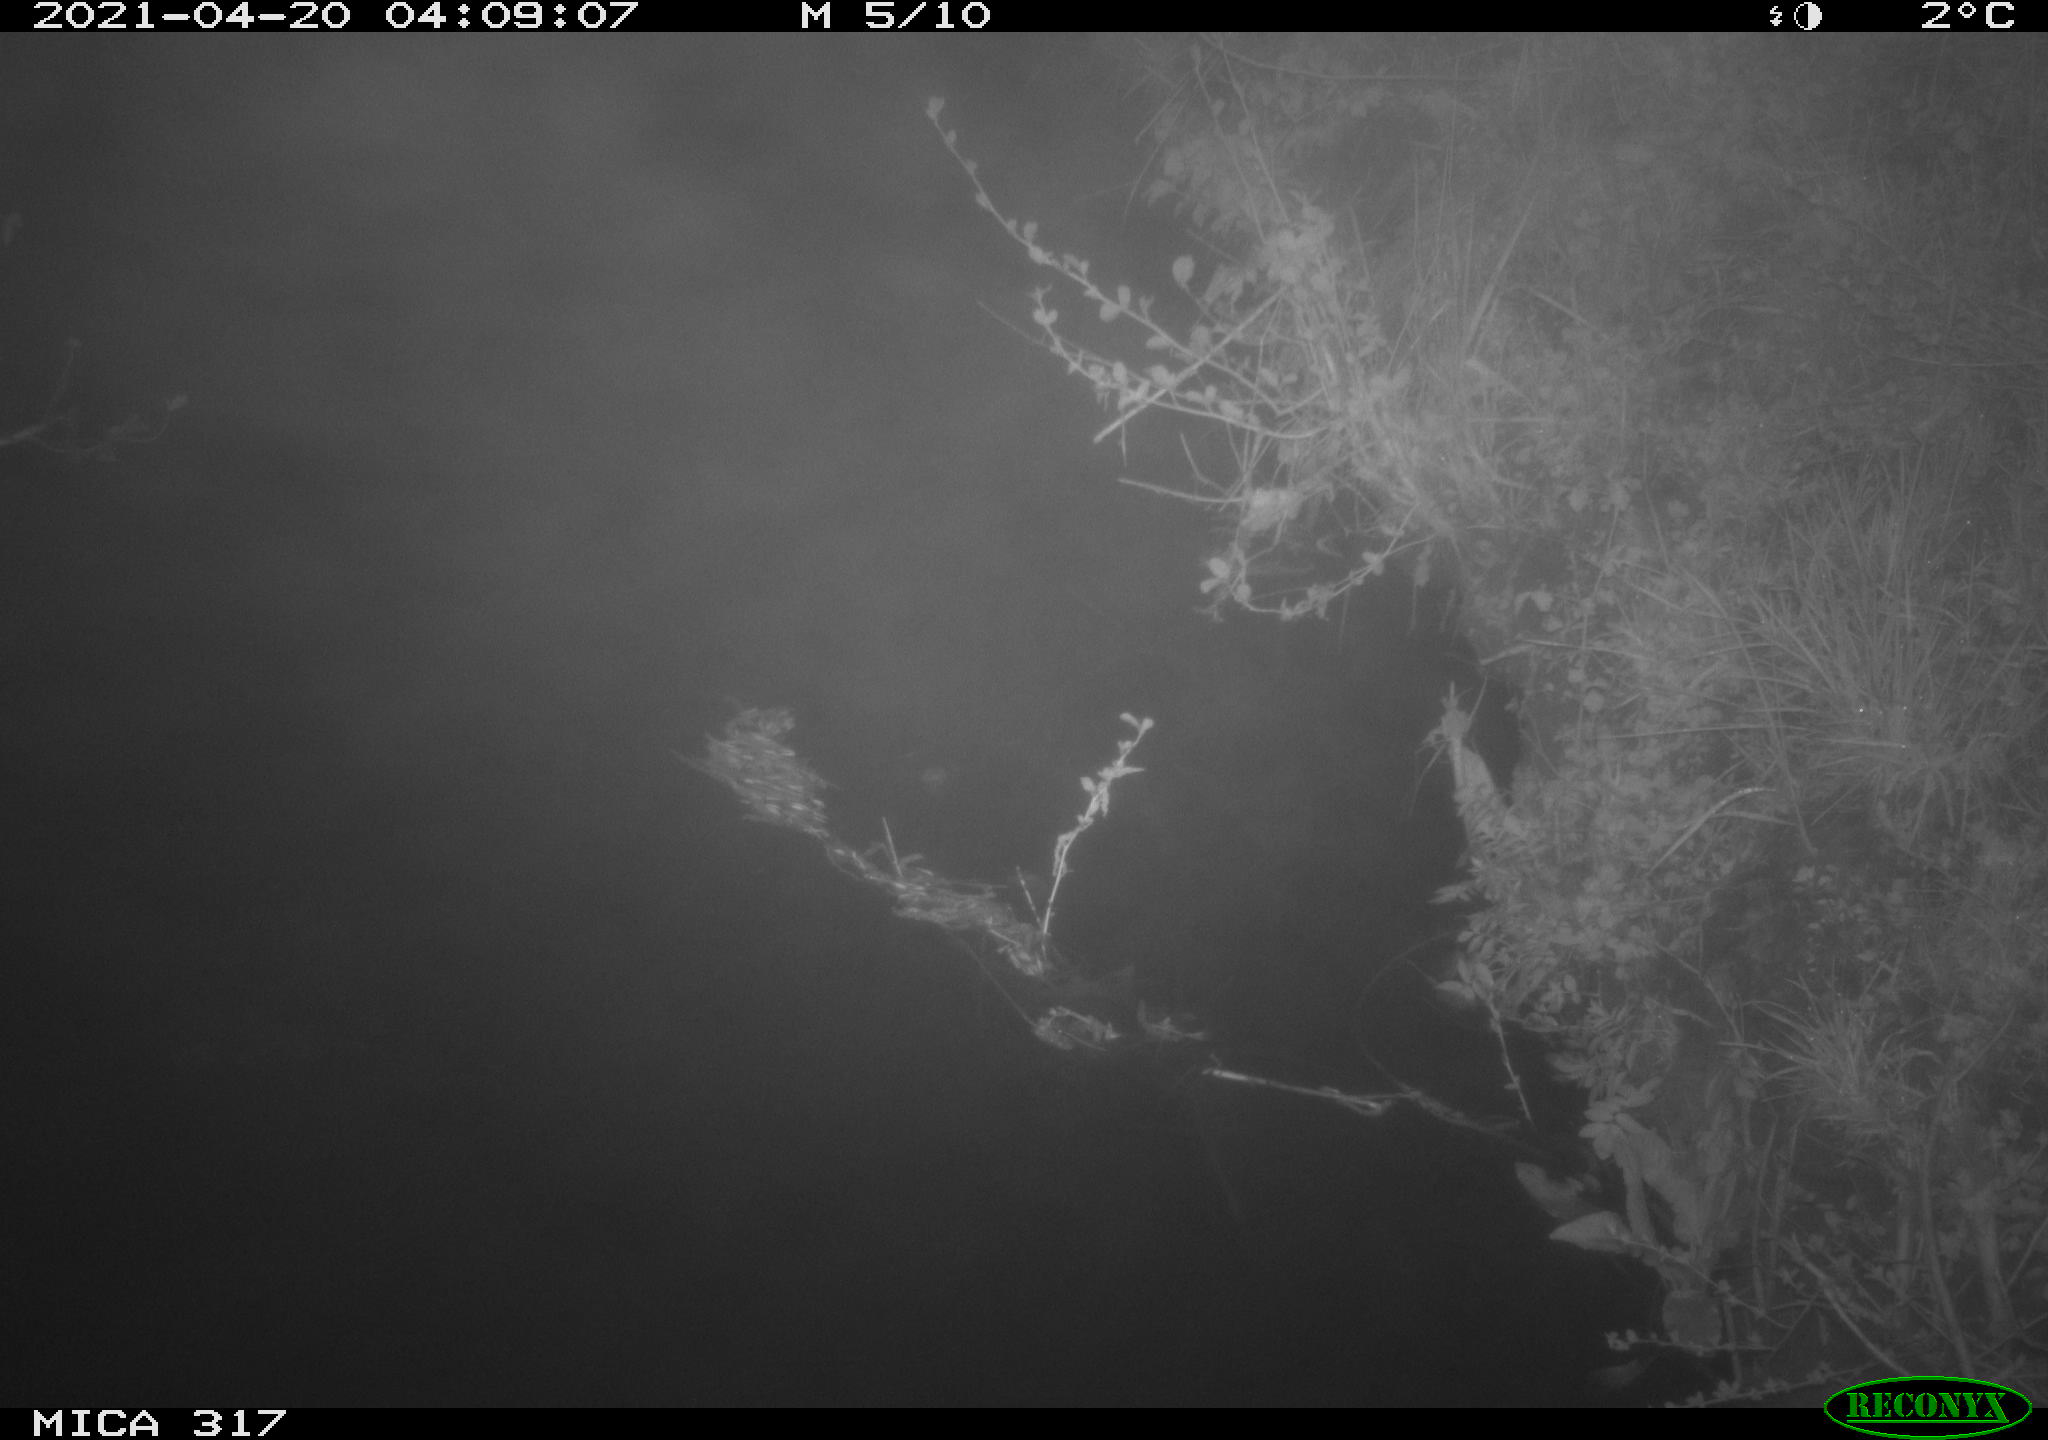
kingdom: Animalia
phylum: Chordata
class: Aves
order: Anseriformes
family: Anatidae
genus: Anas
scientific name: Anas platyrhynchos
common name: Mallard
